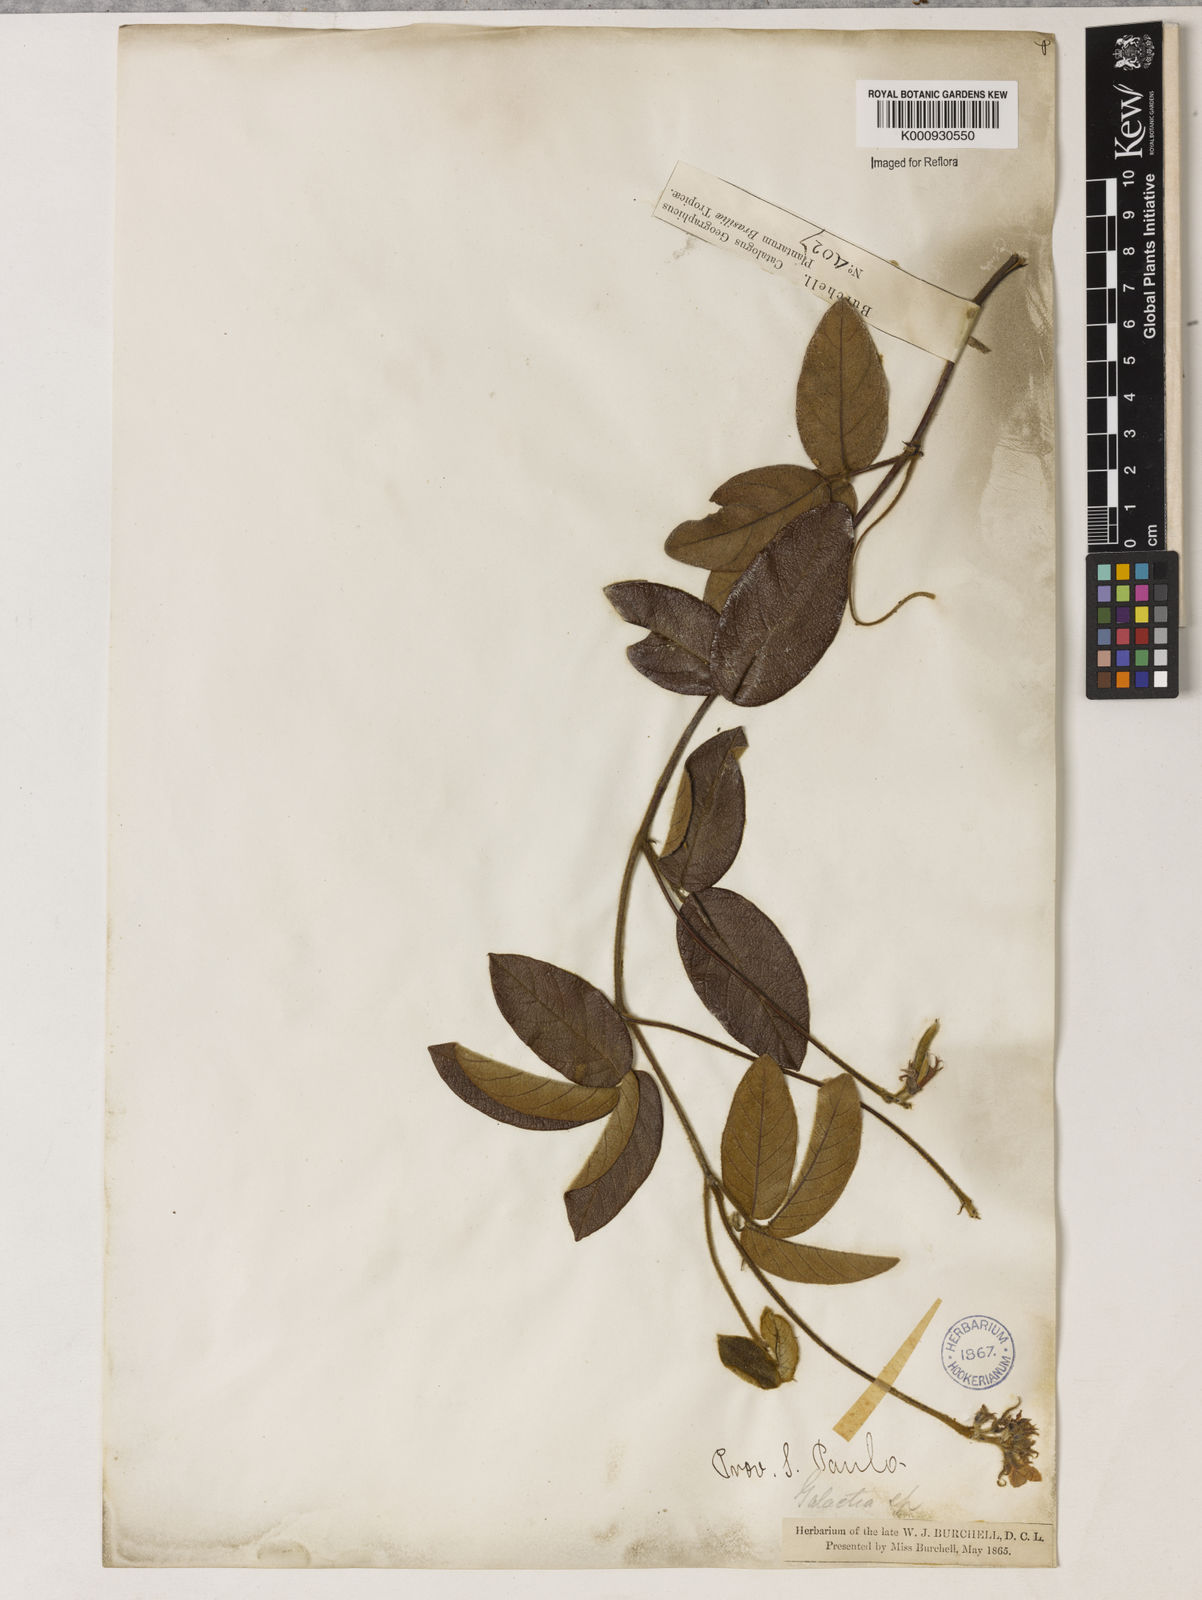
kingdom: Plantae
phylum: Tracheophyta
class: Magnoliopsida
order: Fabales
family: Fabaceae
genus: Betencourtia
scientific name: Betencourtia neesii
